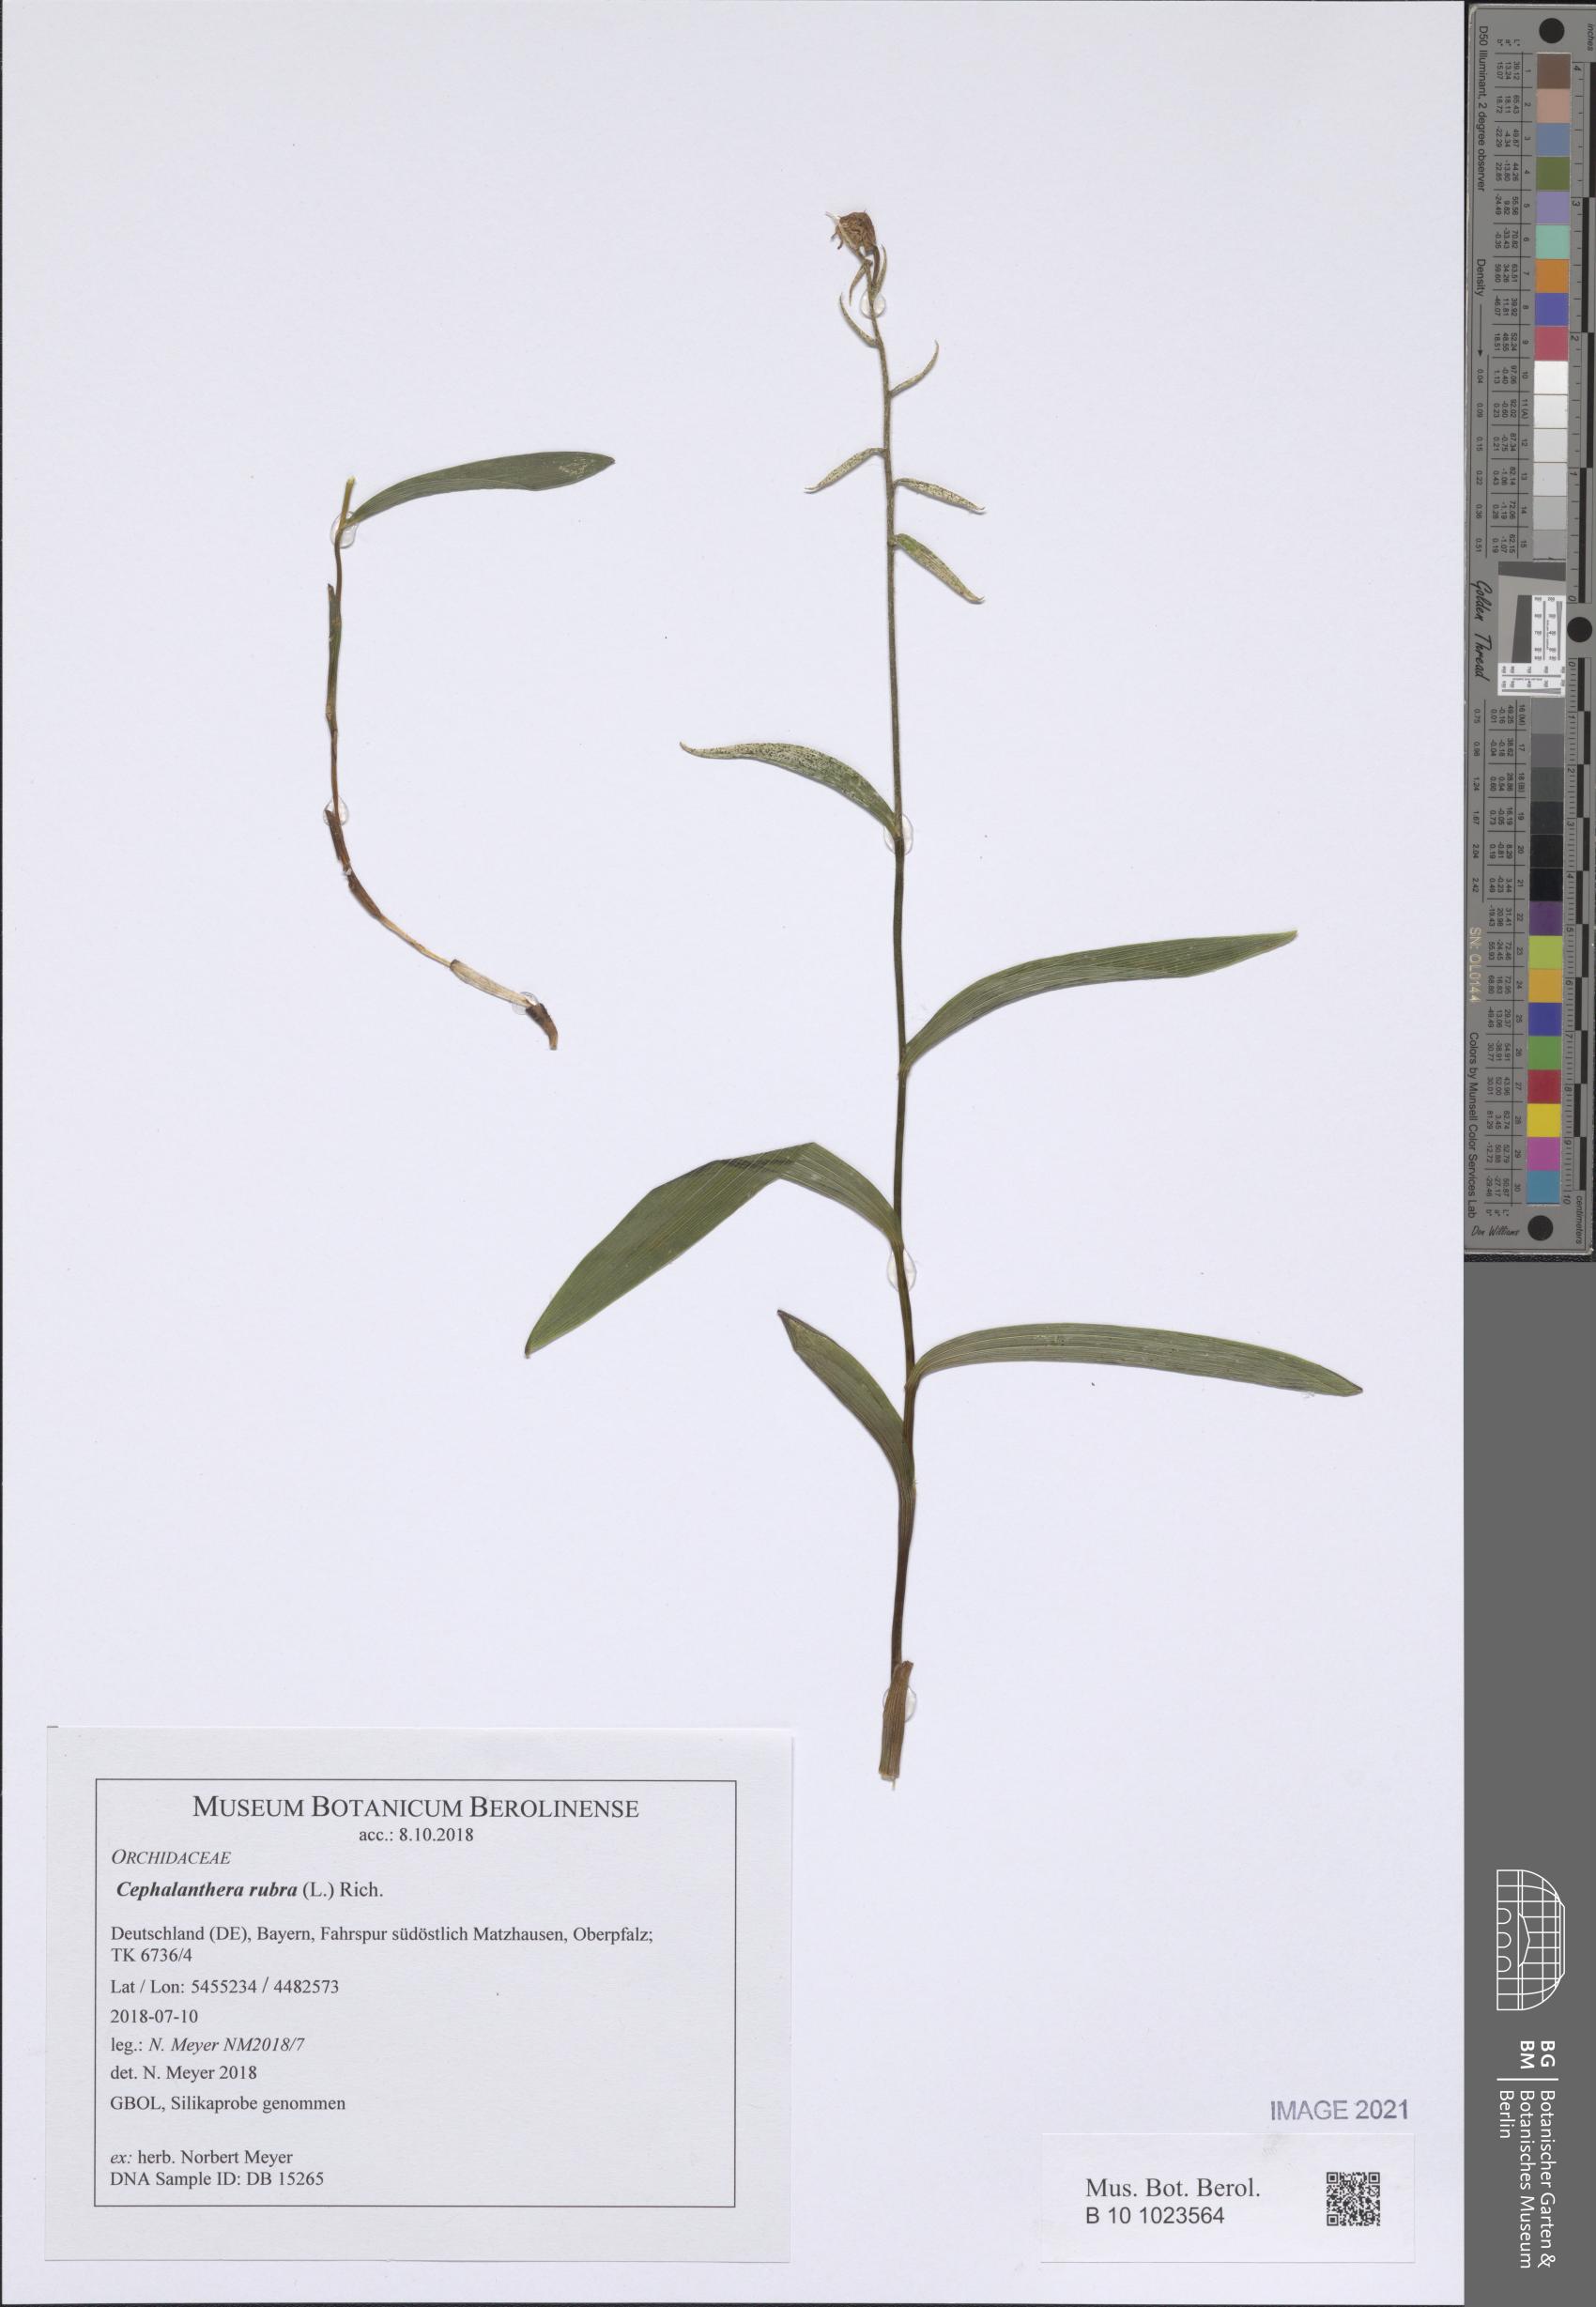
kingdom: Plantae
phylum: Tracheophyta
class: Liliopsida
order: Asparagales
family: Orchidaceae
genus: Cephalanthera
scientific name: Cephalanthera rubra
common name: Red helleborine
